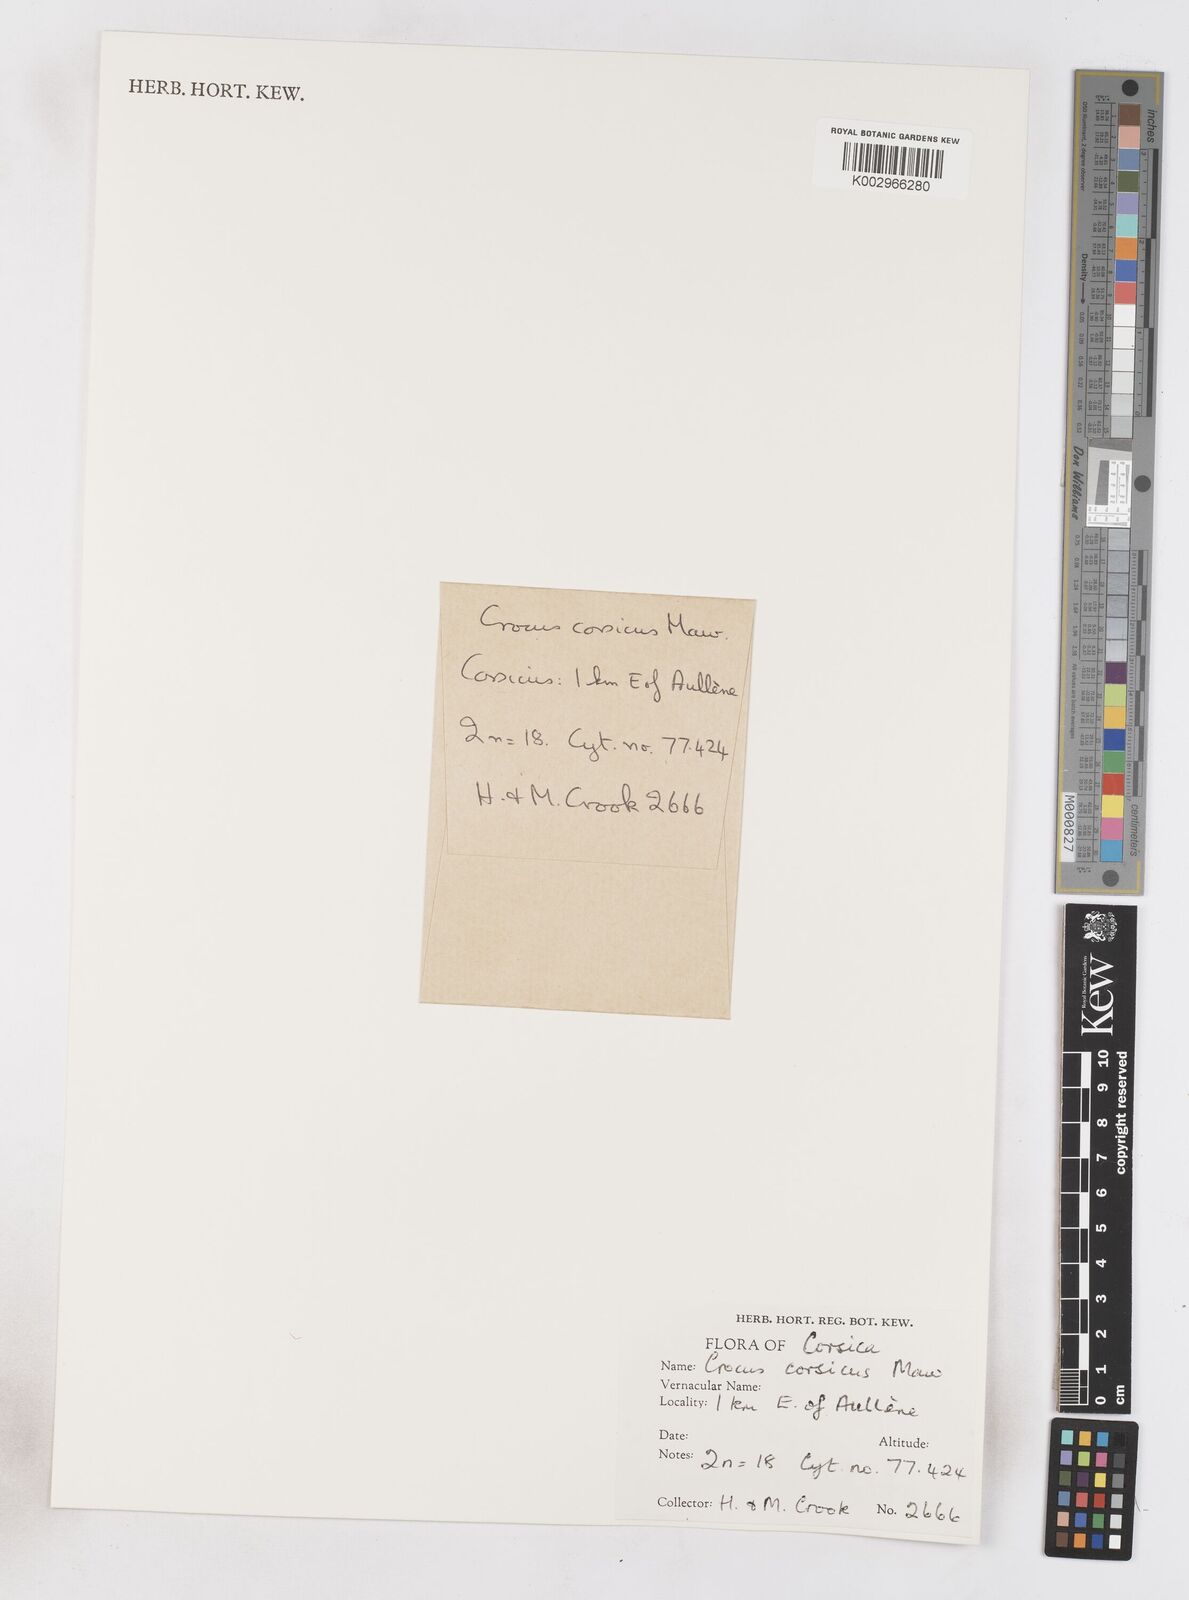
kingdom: Plantae
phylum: Tracheophyta
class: Liliopsida
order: Asparagales
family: Iridaceae
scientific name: Iridaceae
